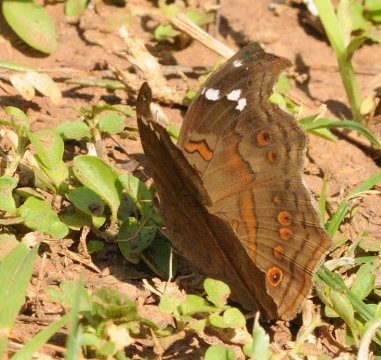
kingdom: Animalia
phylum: Arthropoda
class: Insecta
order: Lepidoptera
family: Nymphalidae
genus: Junonia
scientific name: Junonia natalica
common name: Natal Pansy
